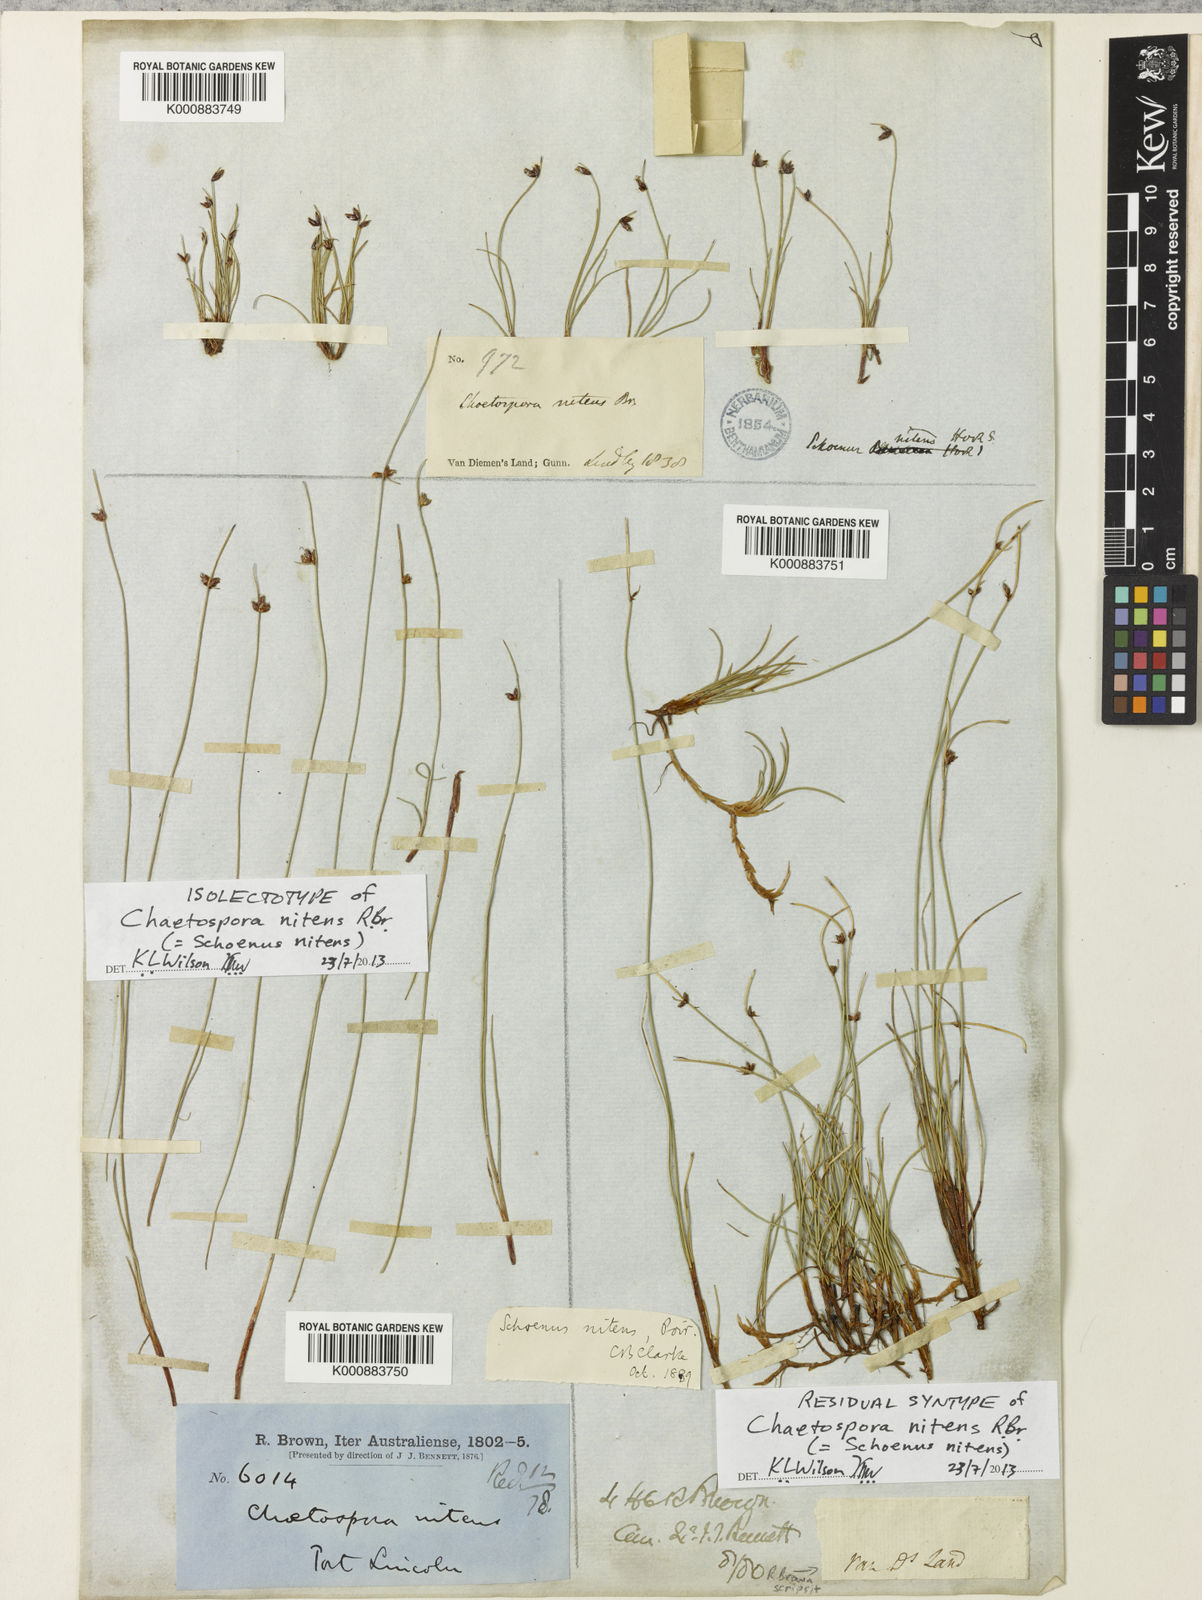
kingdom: Plantae
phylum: Tracheophyta
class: Liliopsida
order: Poales
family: Cyperaceae
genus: Schoenus
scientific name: Schoenus
